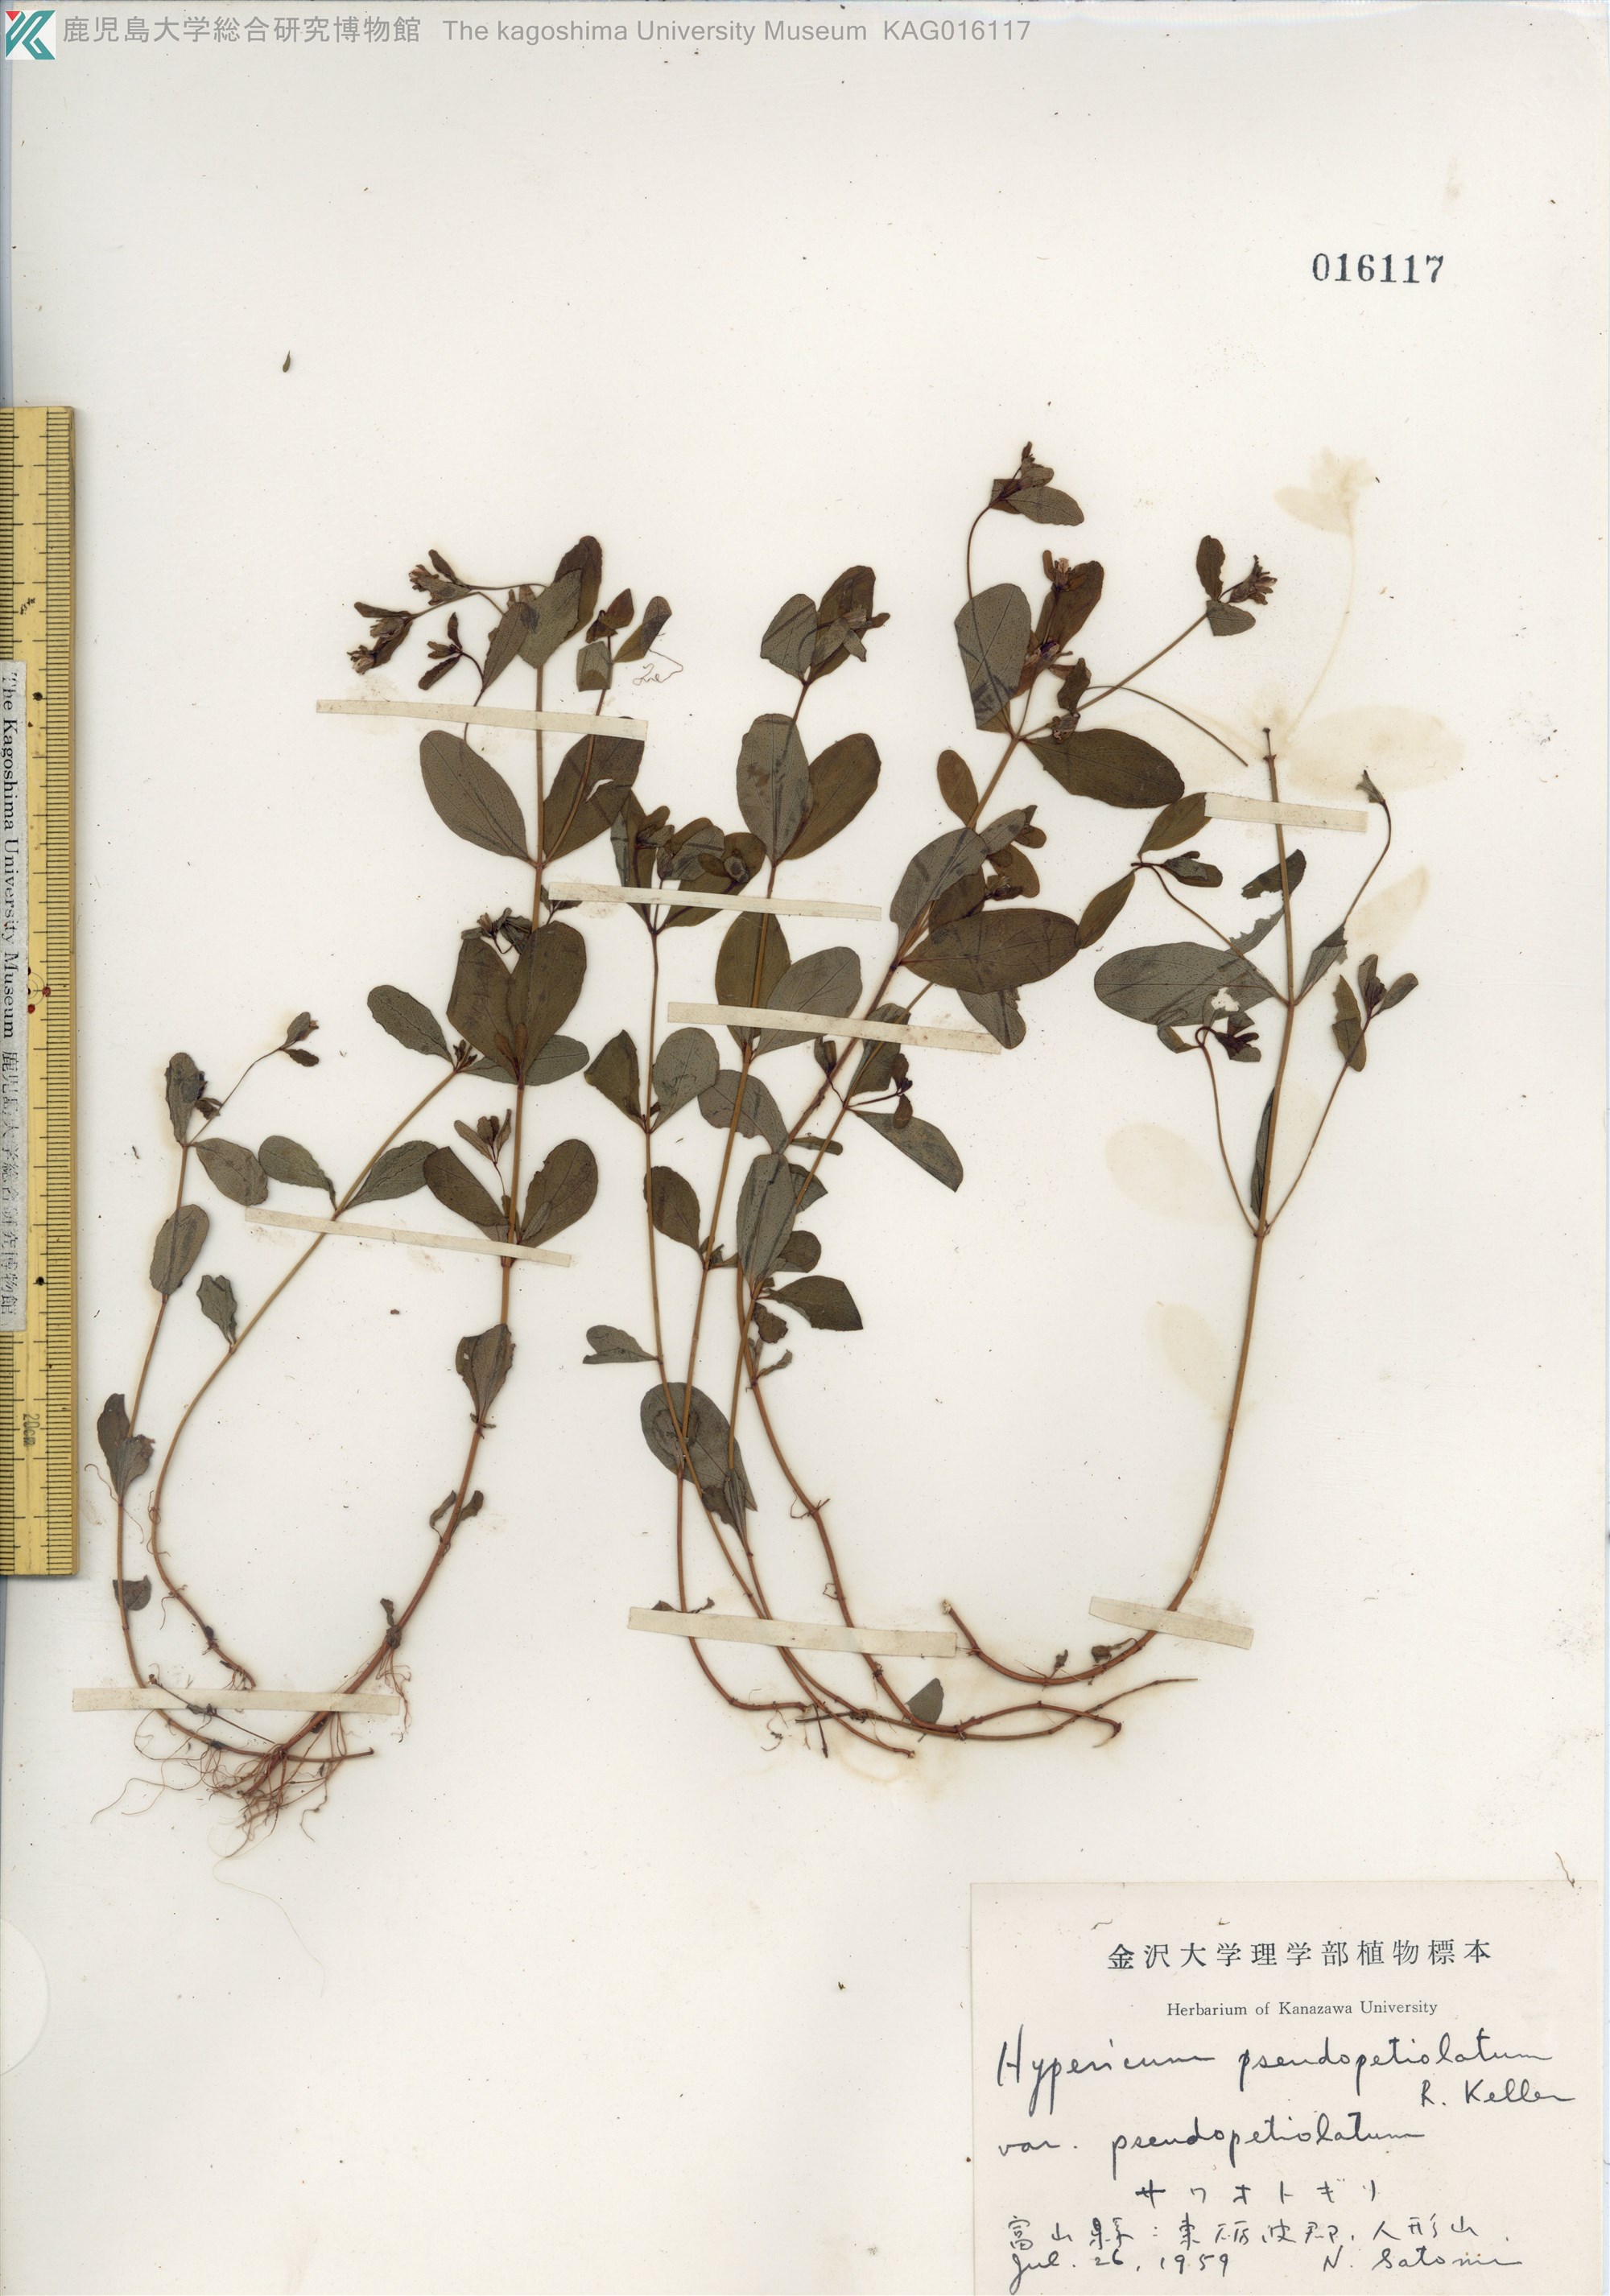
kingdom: Plantae
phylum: Tracheophyta
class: Magnoliopsida
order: Malpighiales
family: Hypericaceae
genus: Hypericum
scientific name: Hypericum pseudopetiolatum
